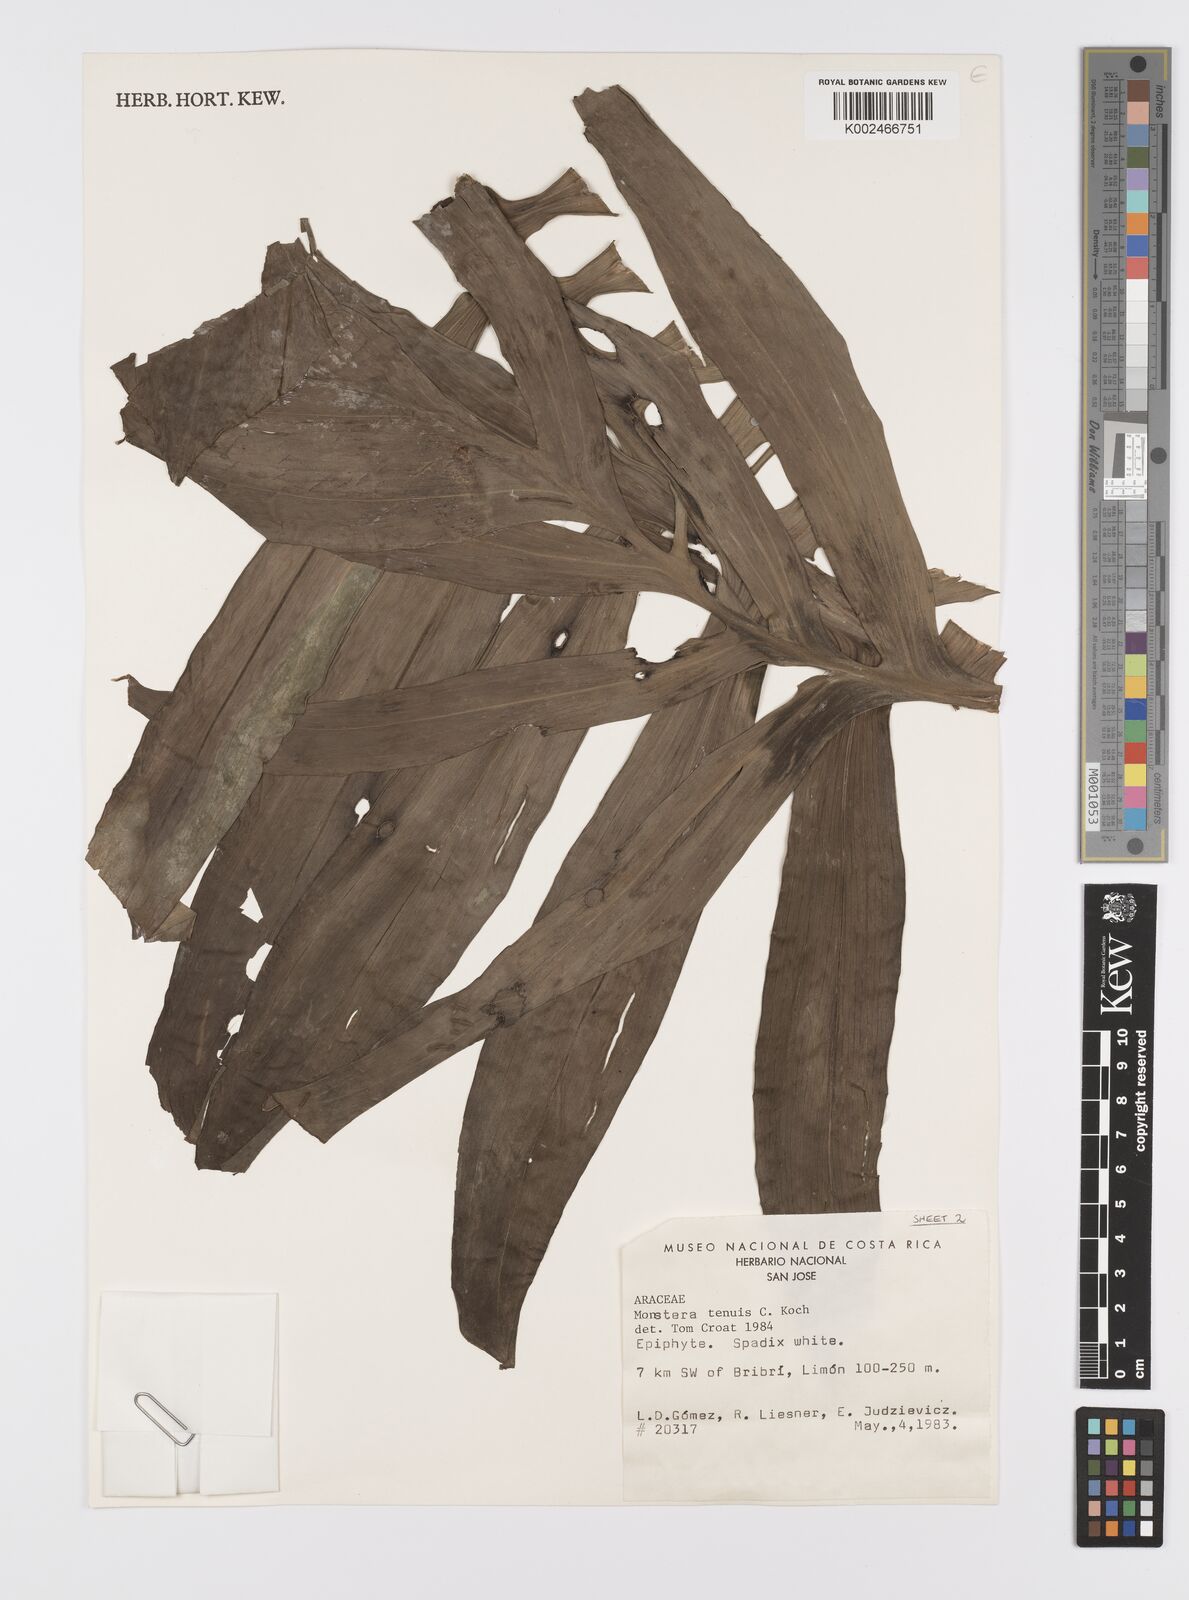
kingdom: Plantae
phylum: Tracheophyta
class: Liliopsida
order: Alismatales
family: Araceae
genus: Monstera
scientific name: Monstera tenuis
